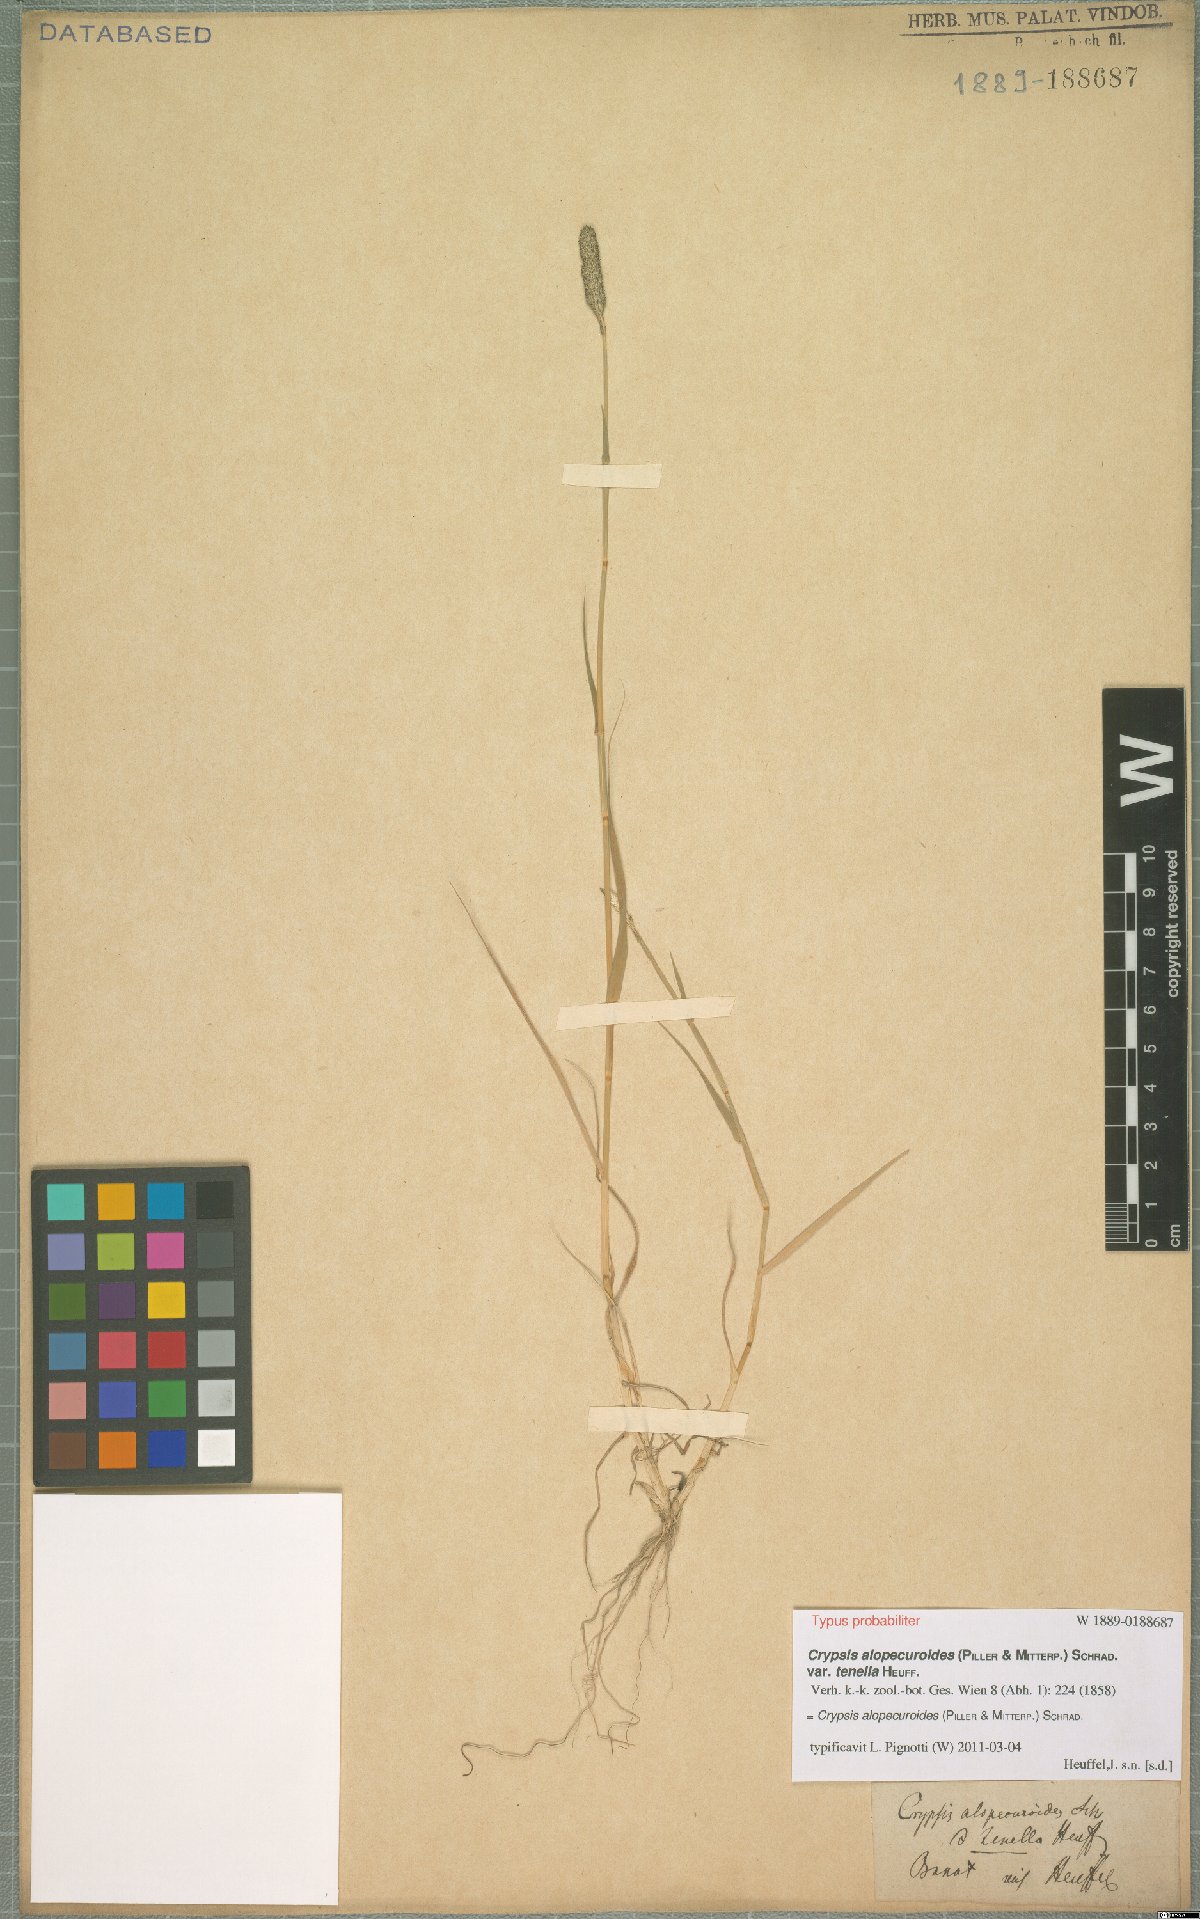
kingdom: Plantae
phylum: Tracheophyta
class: Liliopsida
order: Poales
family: Poaceae
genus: Sporobolus
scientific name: Sporobolus alopecuroides
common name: Foxtail pricklegrass
